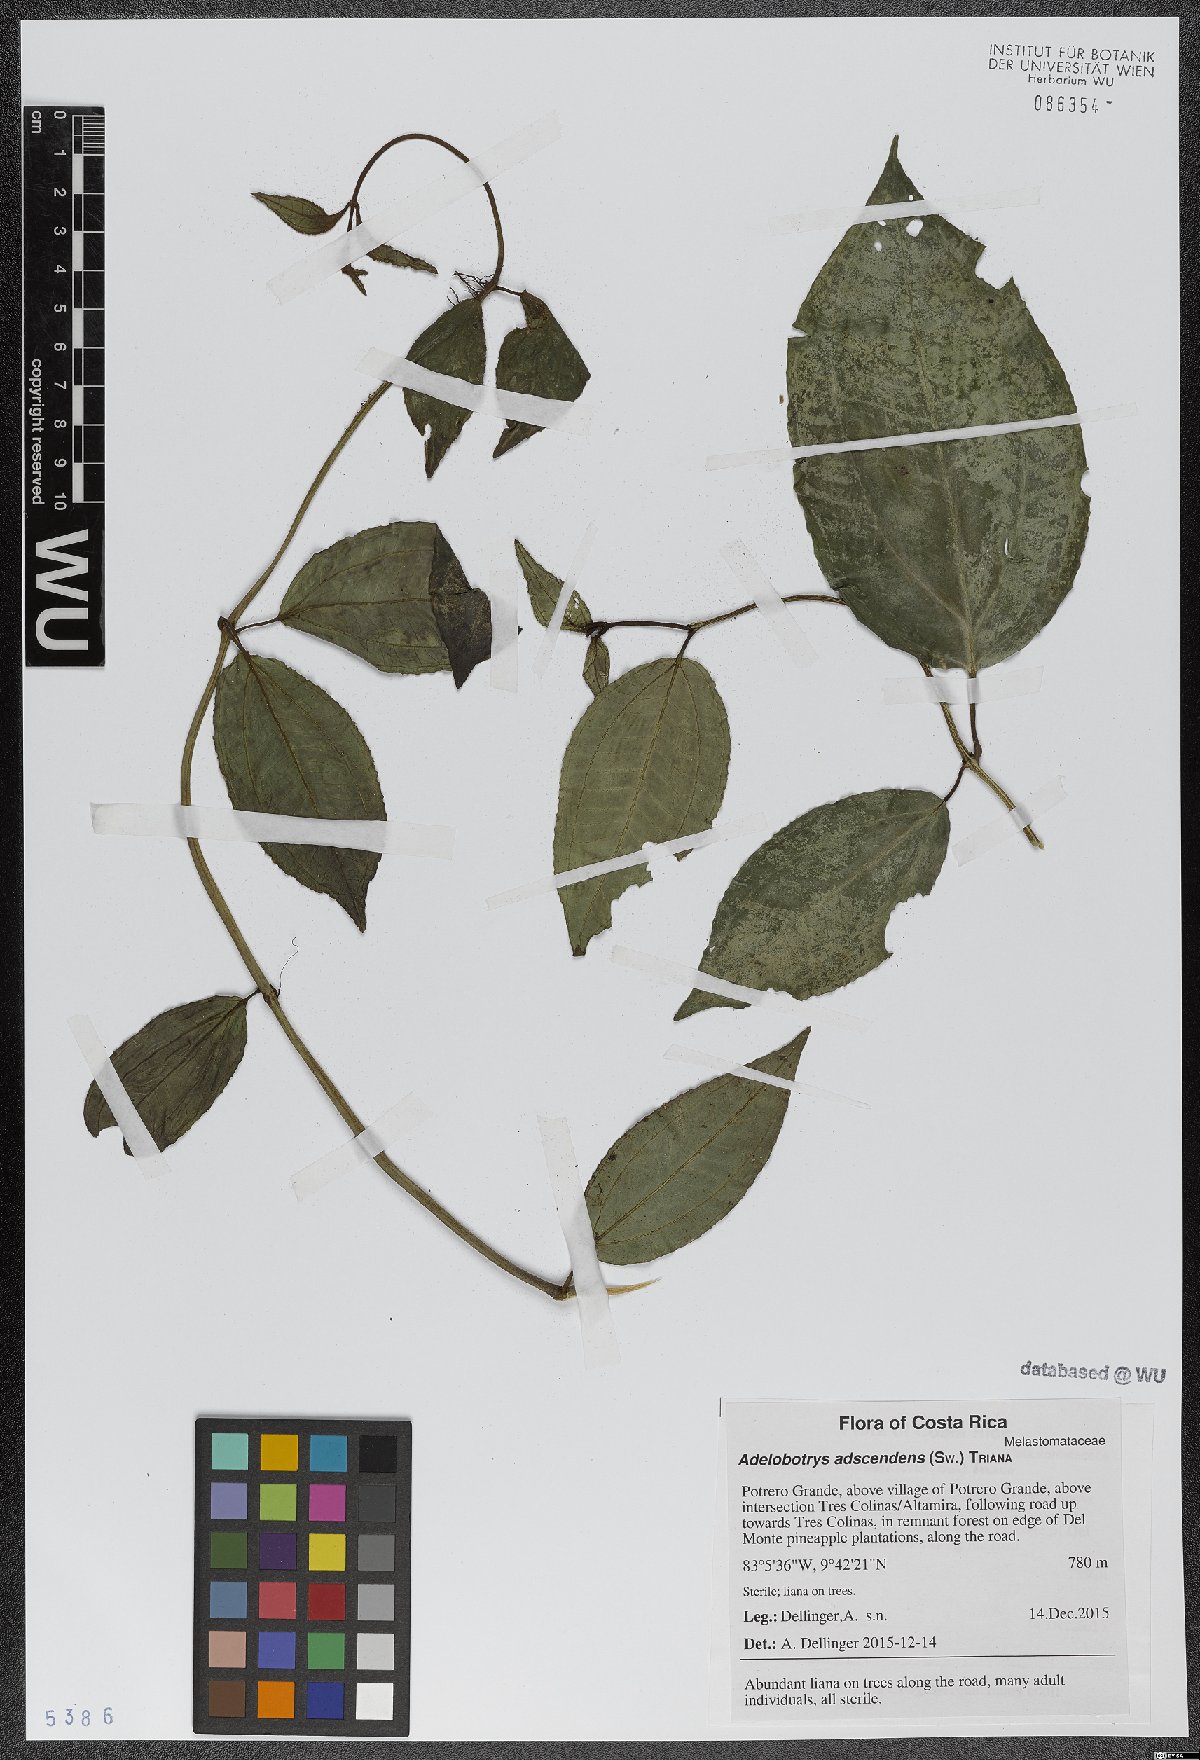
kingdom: Plantae
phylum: Tracheophyta
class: Magnoliopsida
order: Myrtales
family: Melastomataceae
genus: Adelobotrys
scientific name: Adelobotrys adscendens
